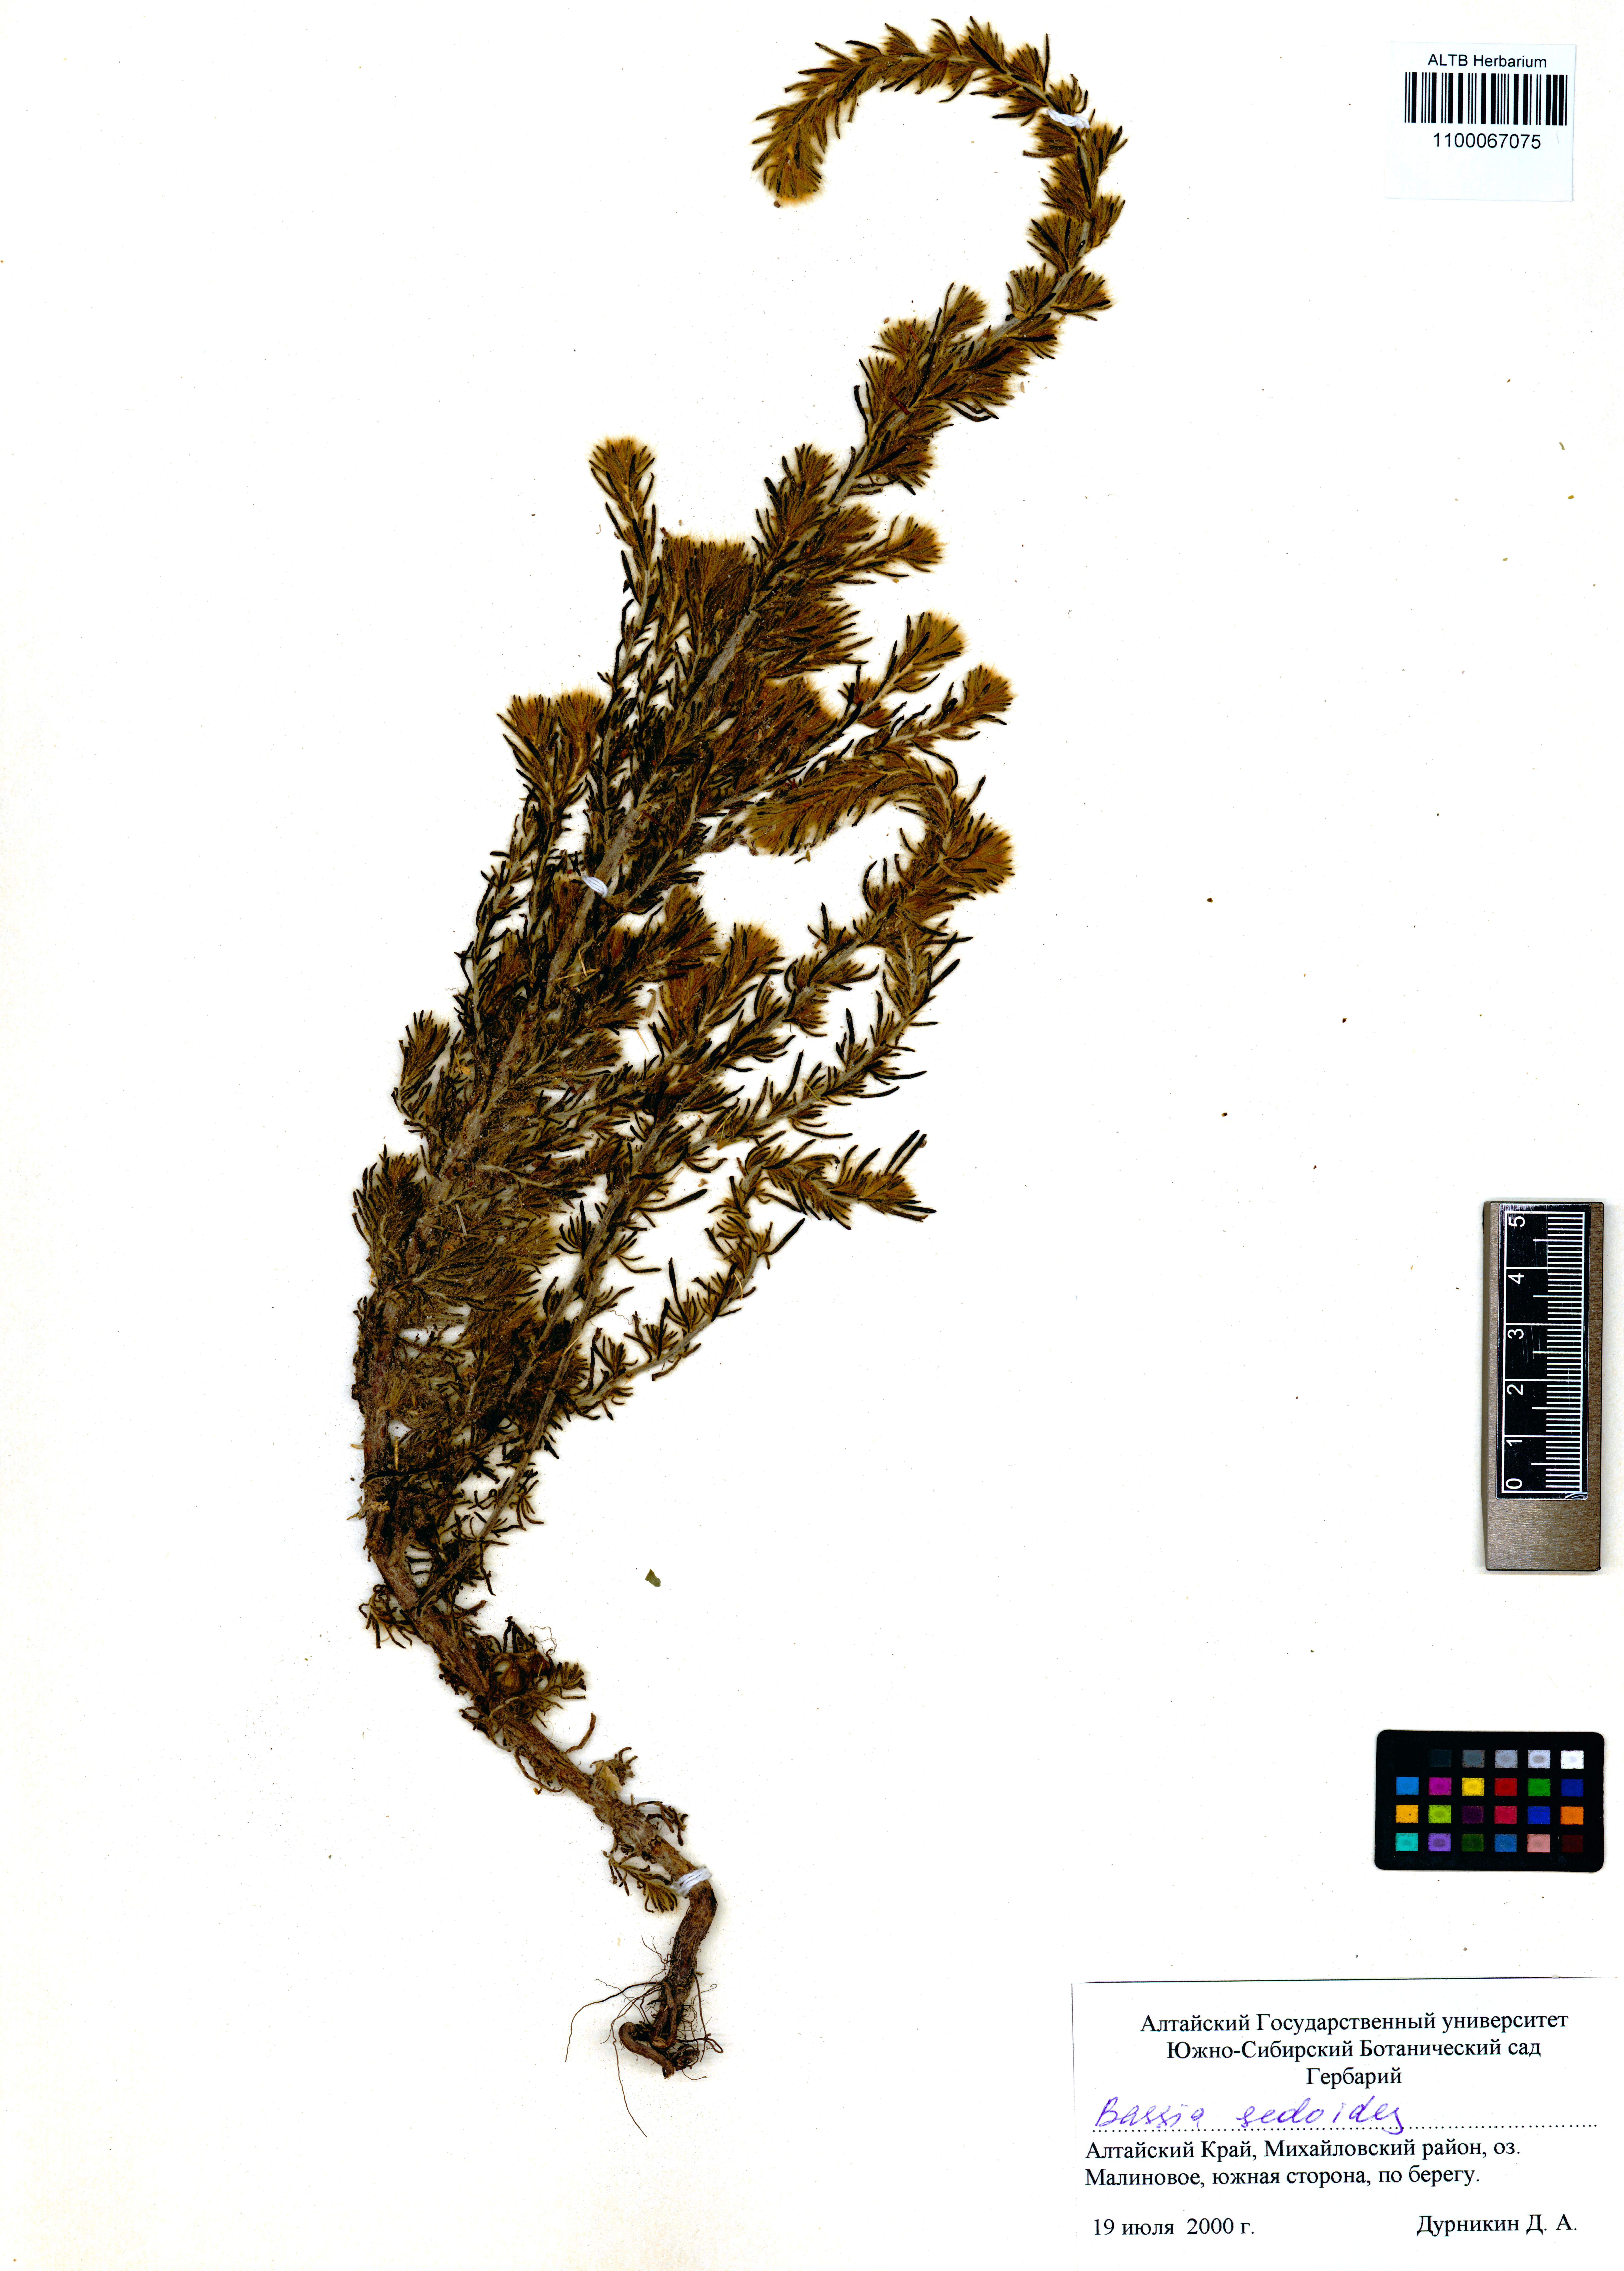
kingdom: Plantae
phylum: Tracheophyta
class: Magnoliopsida
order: Caryophyllales
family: Amaranthaceae
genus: Sedobassia
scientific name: Sedobassia sedoides
